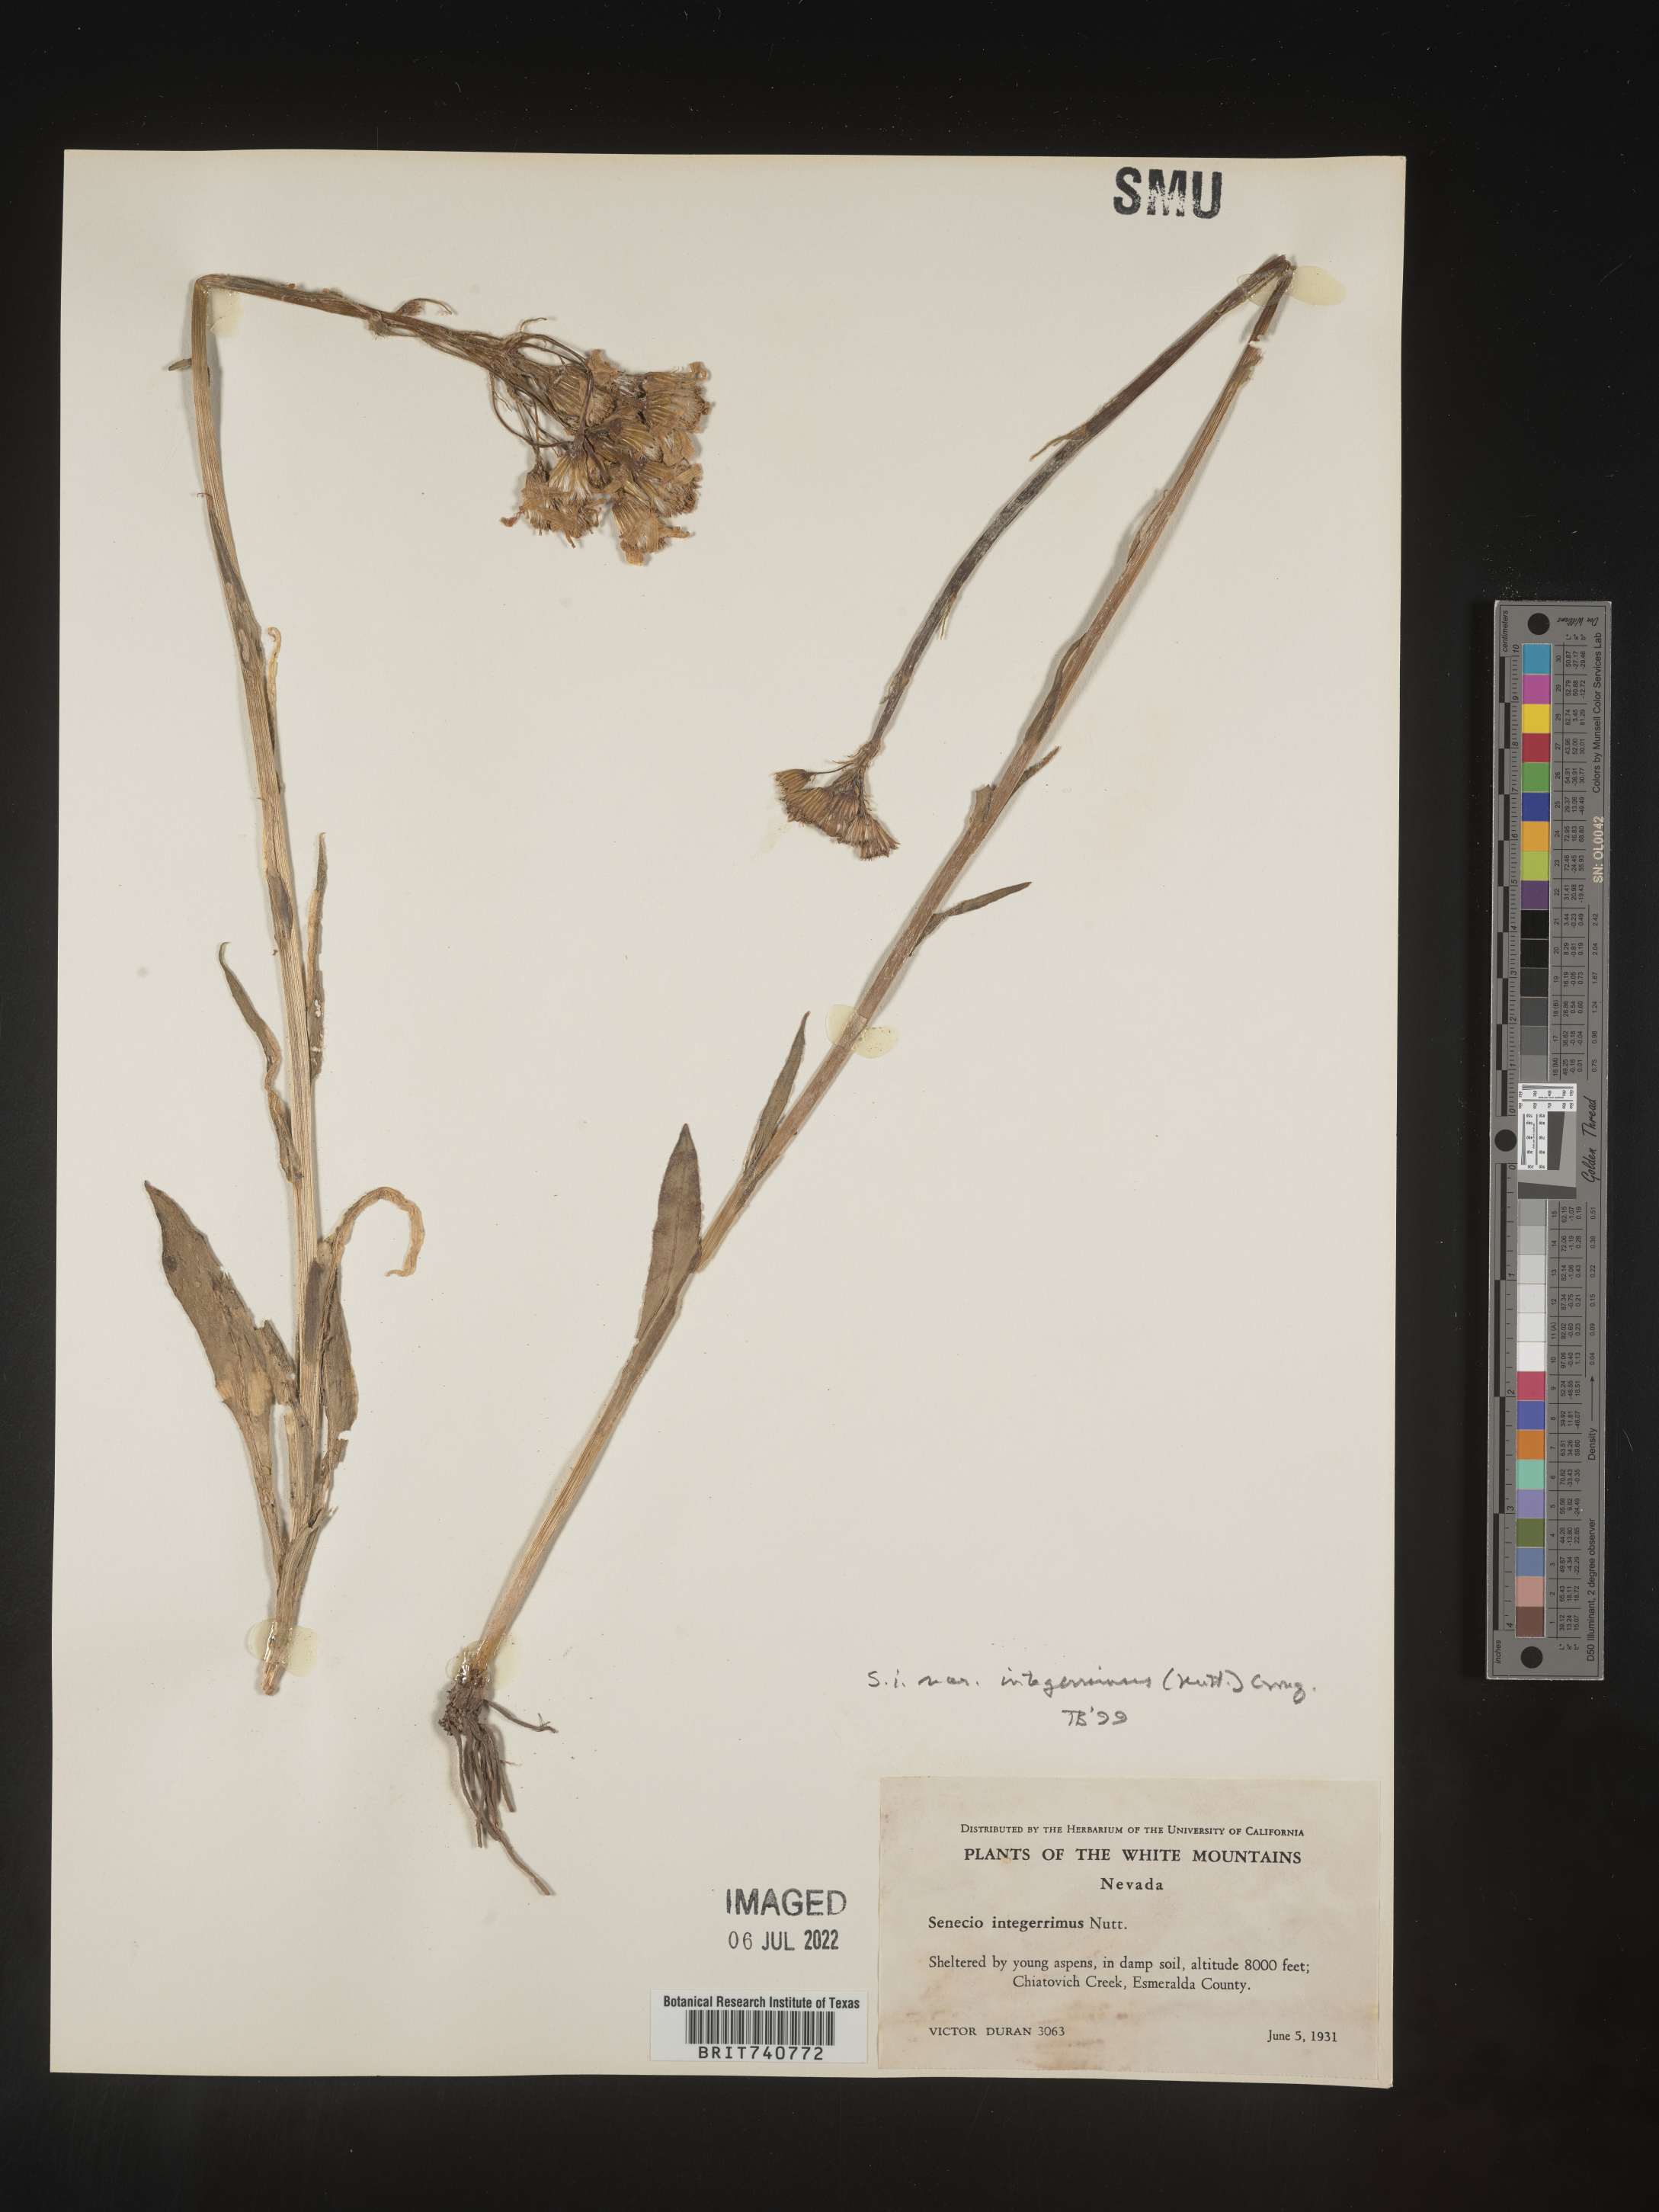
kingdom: Plantae
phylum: Tracheophyta
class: Magnoliopsida
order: Asterales
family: Asteraceae
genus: Senecio
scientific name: Senecio integerrimus
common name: Gaugeplant
